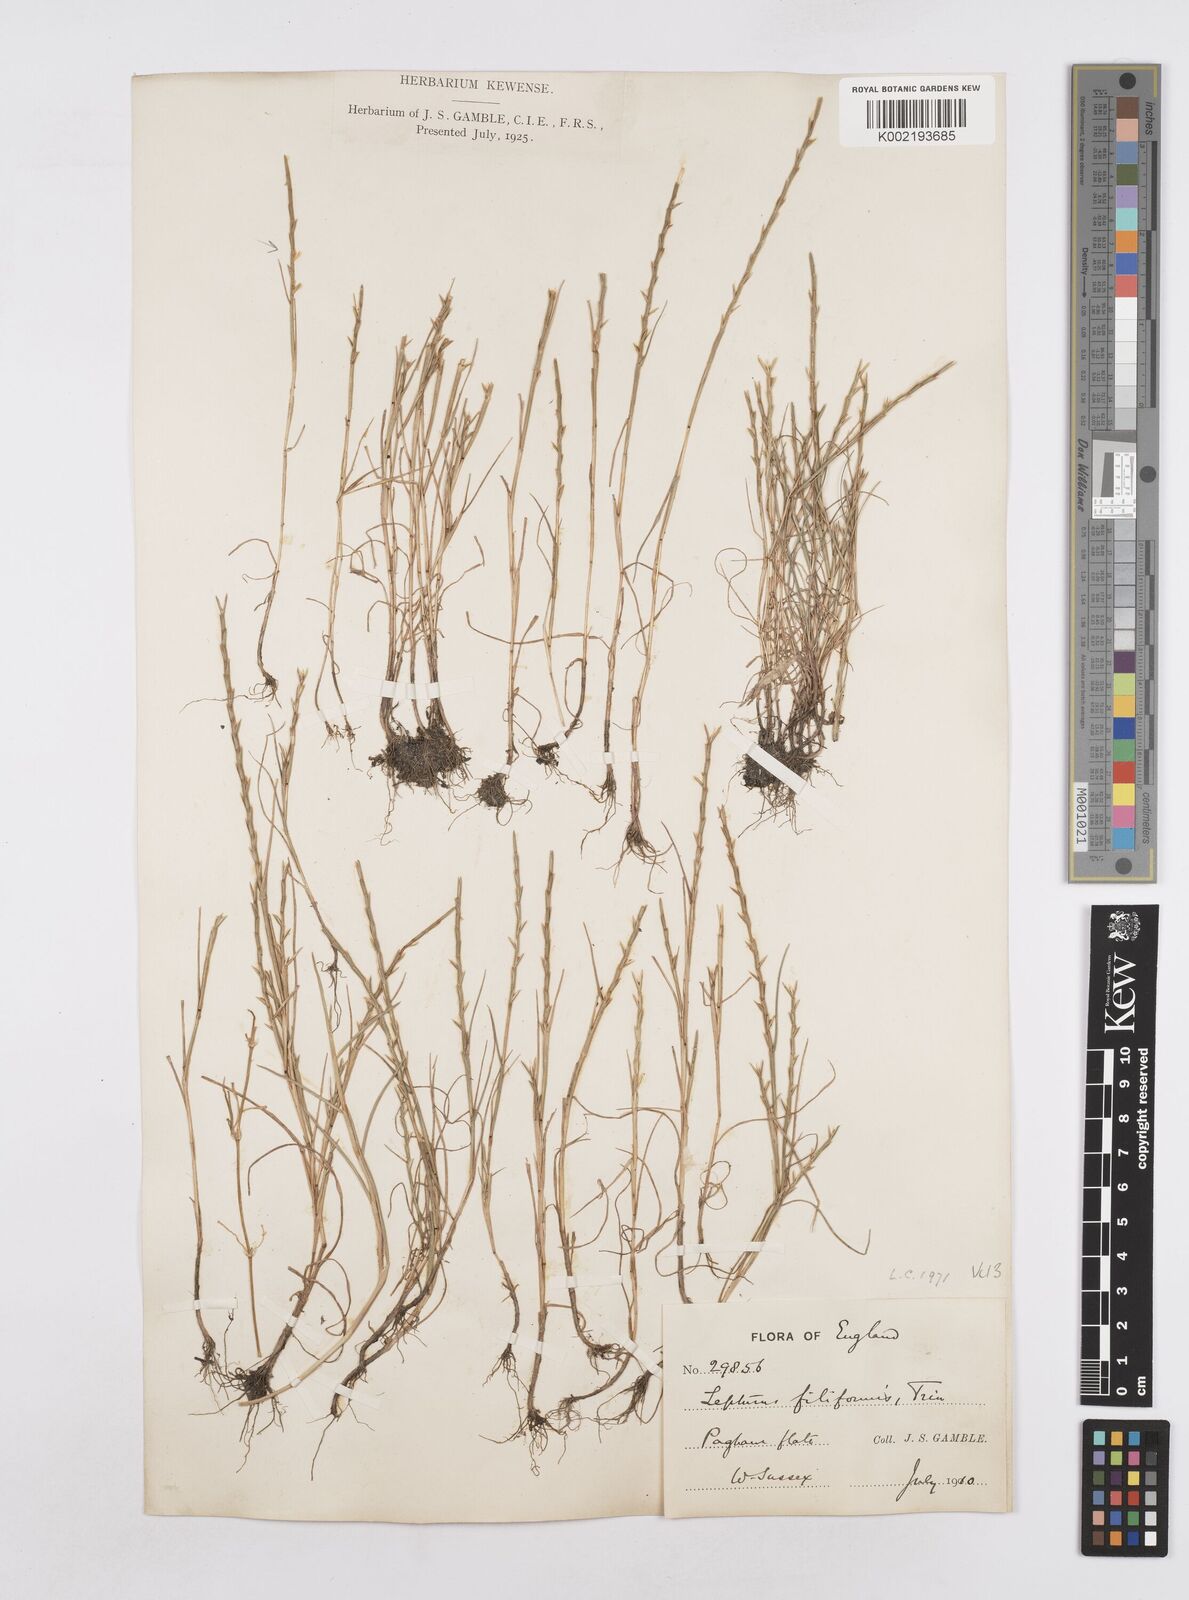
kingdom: Plantae
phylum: Tracheophyta
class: Liliopsida
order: Poales
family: Poaceae
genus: Parapholis
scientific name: Parapholis strigosa
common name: Hard-grass
